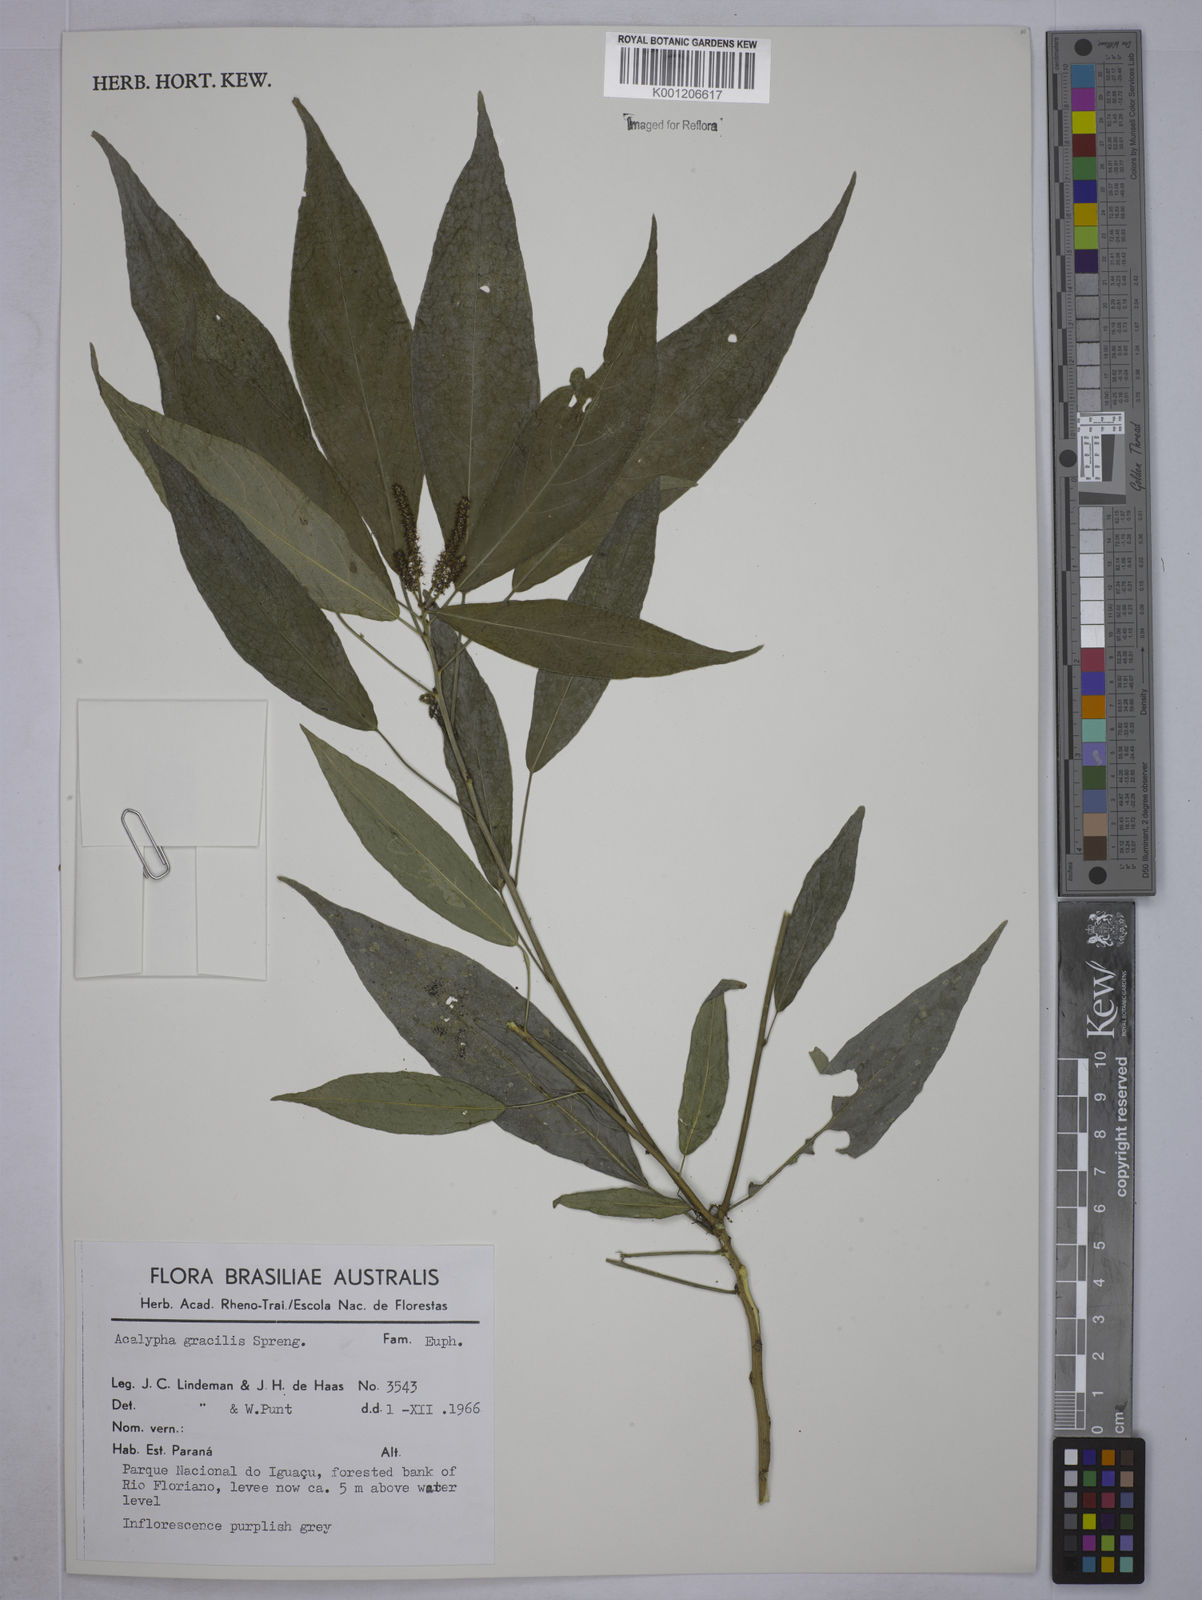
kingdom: Plantae
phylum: Tracheophyta
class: Magnoliopsida
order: Malpighiales
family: Euphorbiaceae
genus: Acalypha
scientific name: Acalypha gracilis
